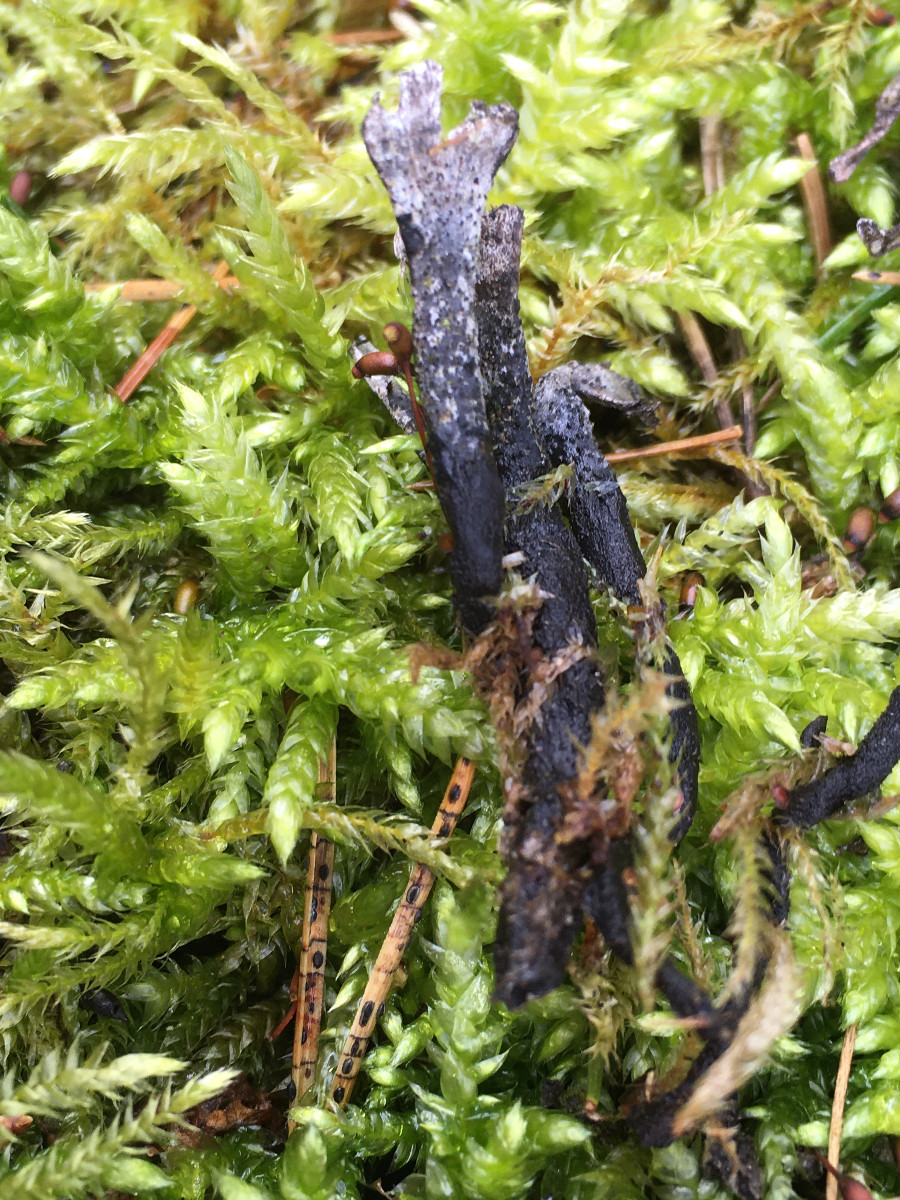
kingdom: Fungi
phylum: Ascomycota
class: Sordariomycetes
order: Xylariales
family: Xylariaceae
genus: Xylaria
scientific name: Xylaria hypoxylon
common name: grenet stødsvamp
